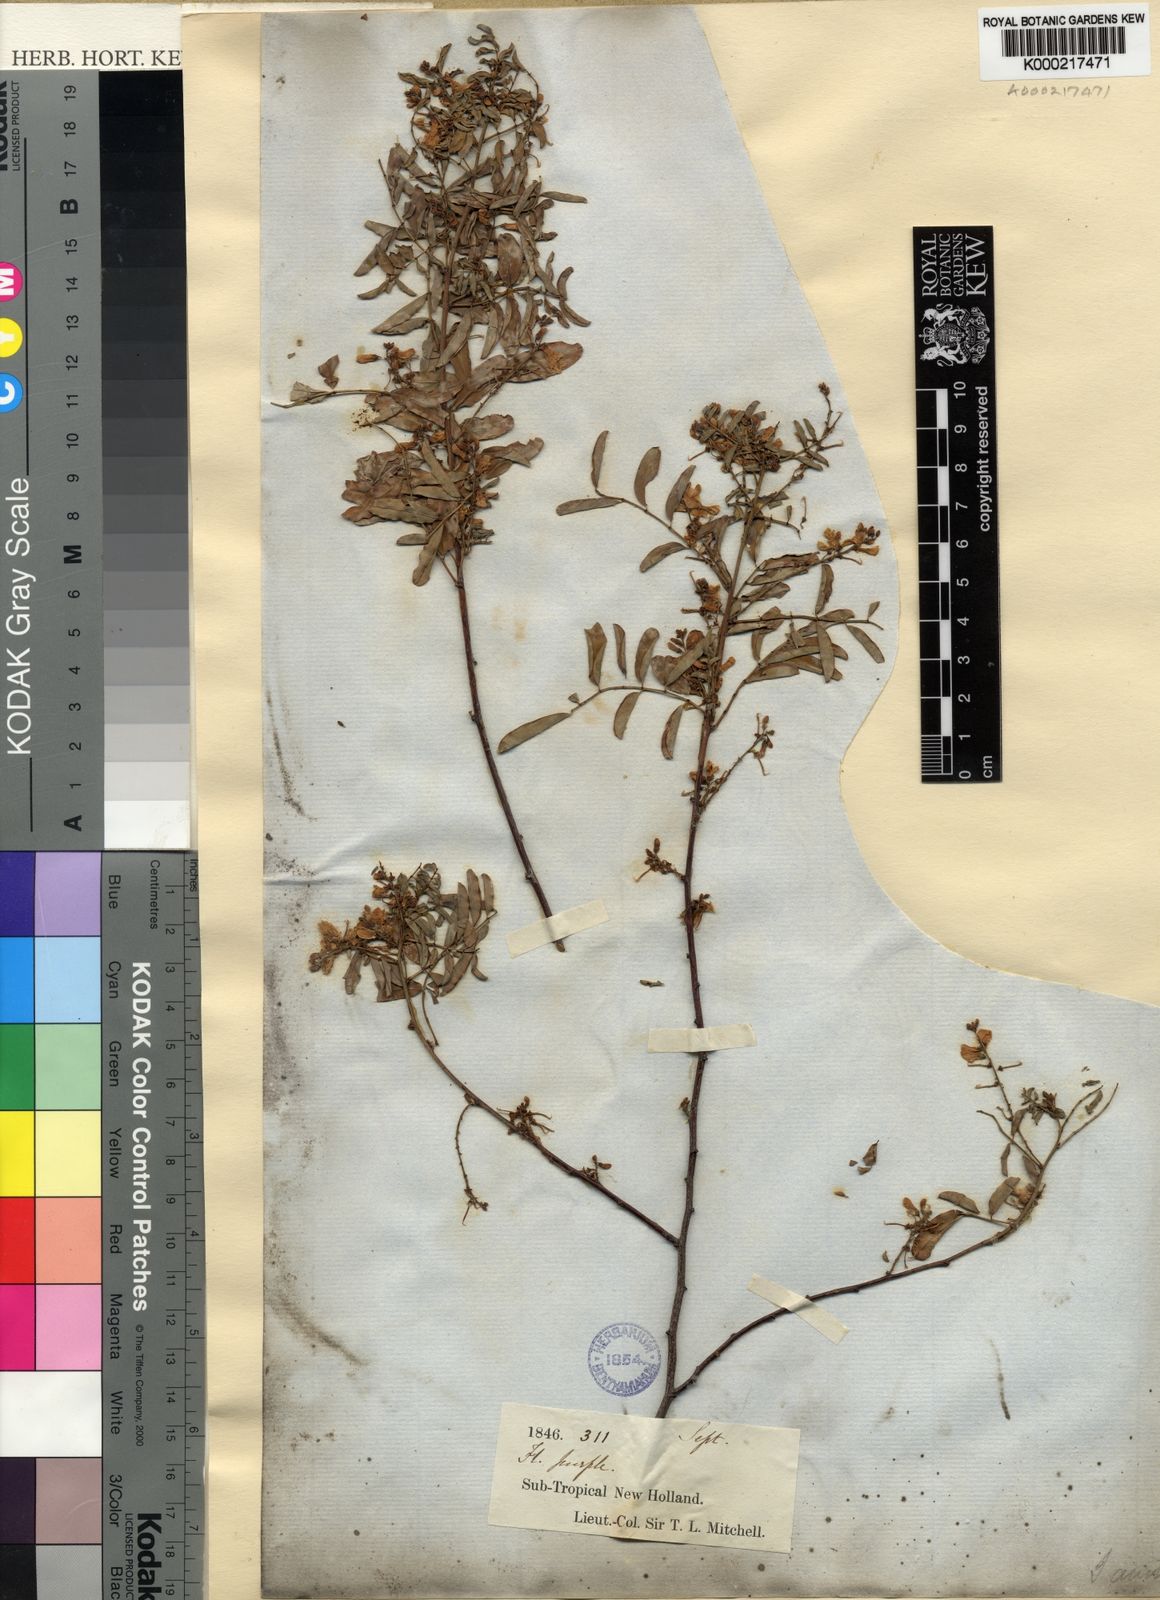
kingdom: Plantae
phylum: Tracheophyta
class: Magnoliopsida
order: Fabales
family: Fabaceae
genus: Indigofera
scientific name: Indigofera australis
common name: Australian indigo
